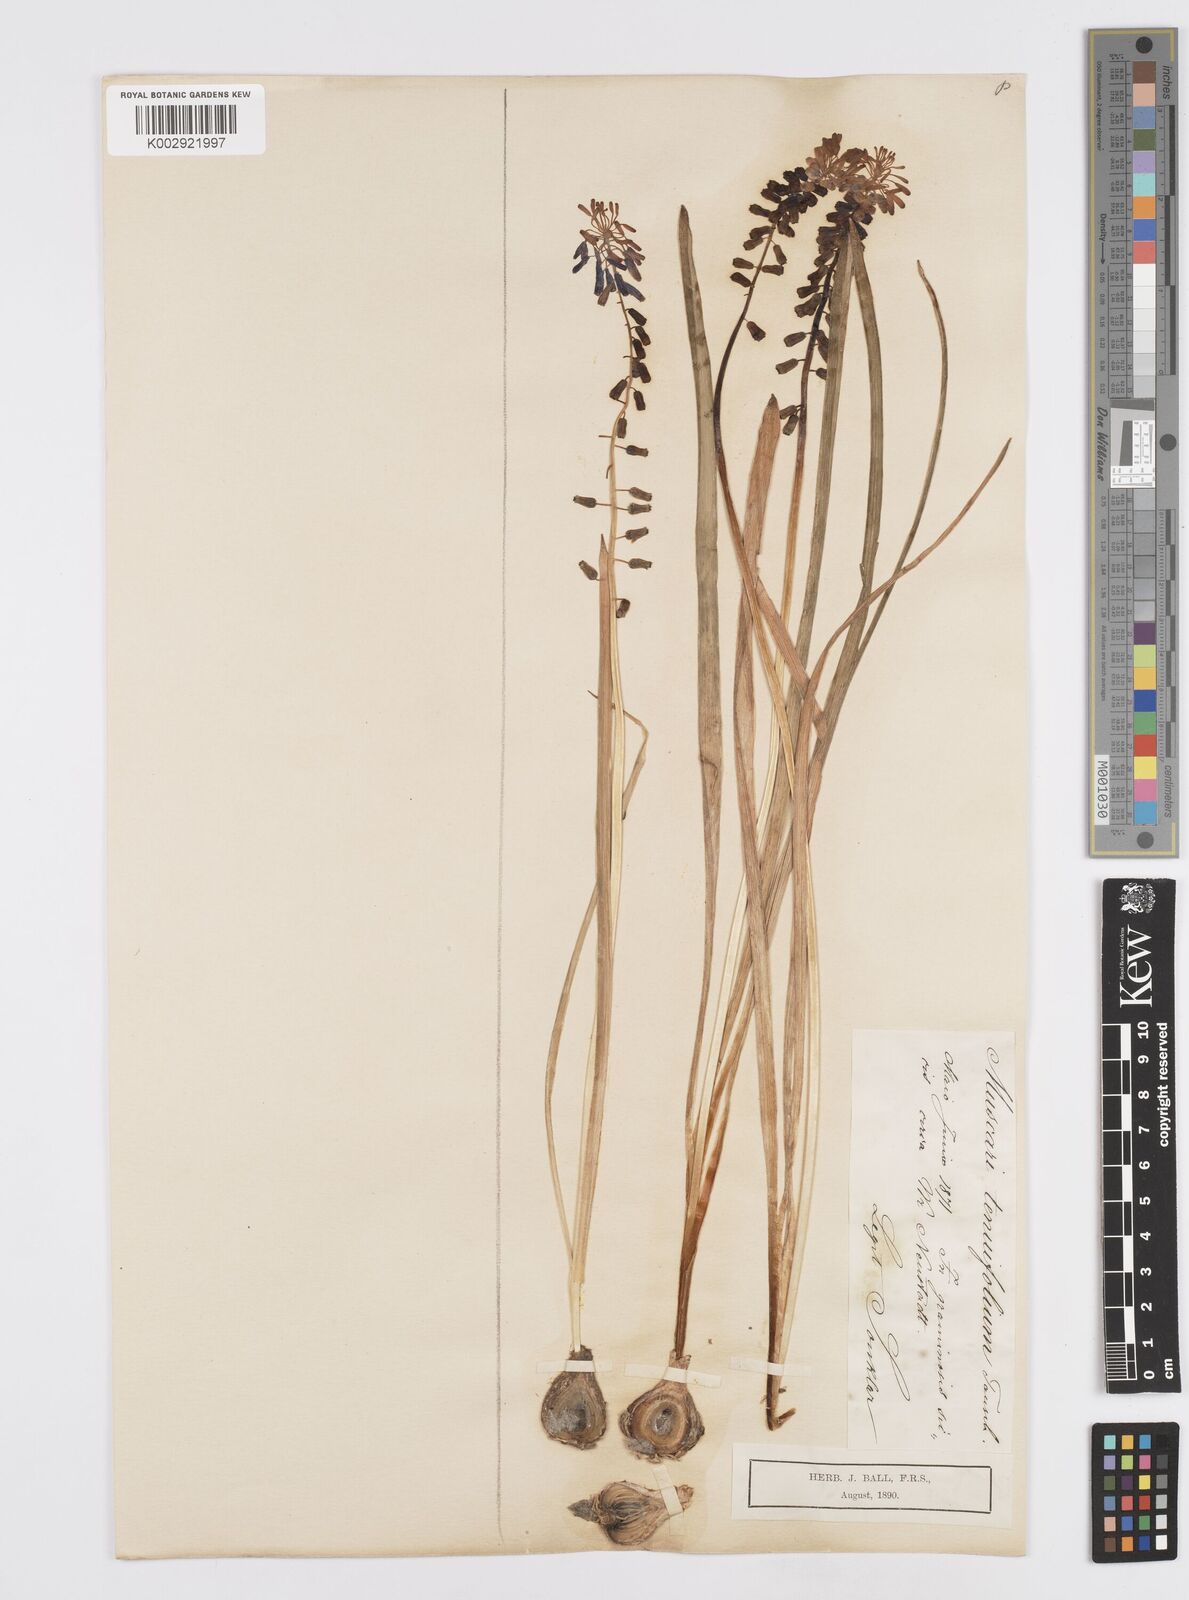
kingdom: Plantae
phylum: Tracheophyta
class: Liliopsida
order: Asparagales
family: Asparagaceae
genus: Muscari
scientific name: Muscari tenuiflorum
